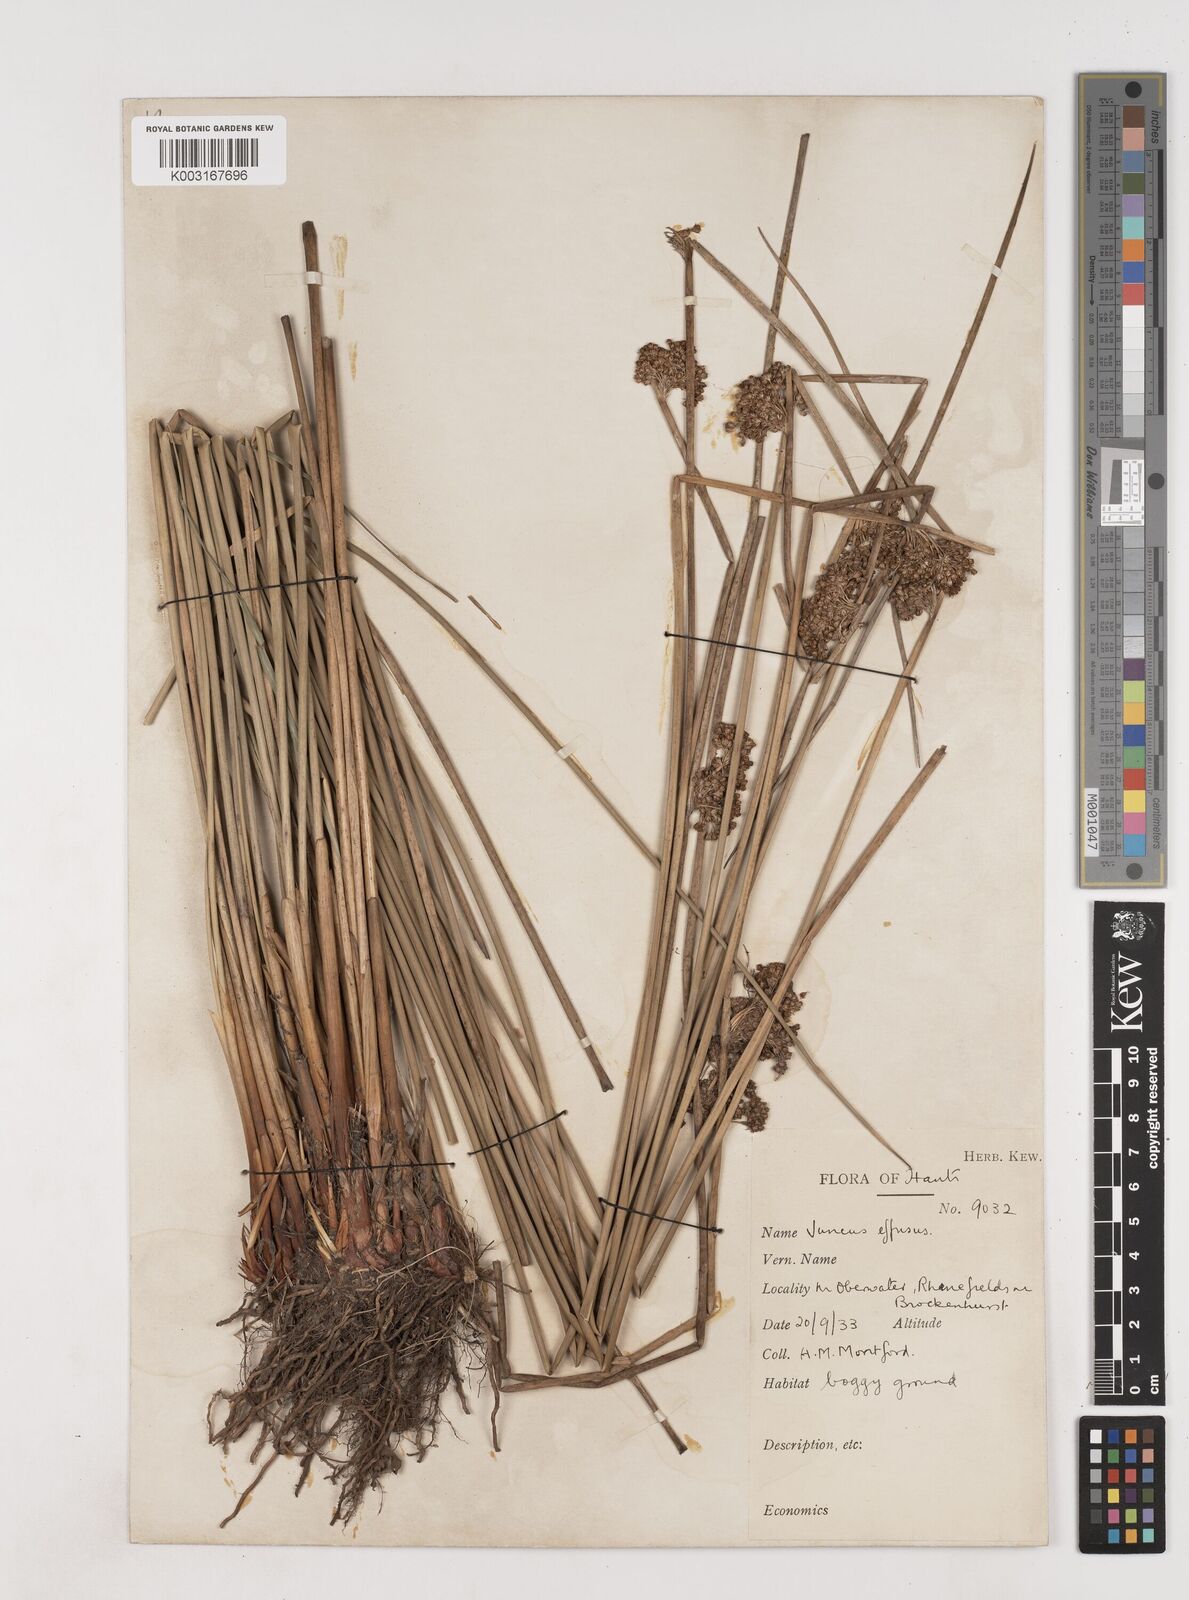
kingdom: Plantae
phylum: Tracheophyta
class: Liliopsida
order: Poales
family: Juncaceae
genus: Juncus
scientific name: Juncus effusus
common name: Soft rush
